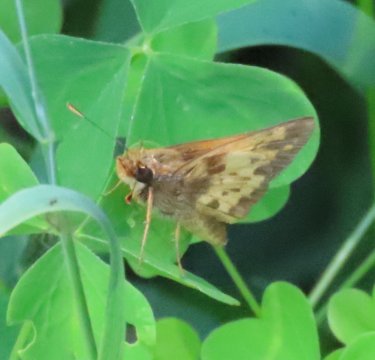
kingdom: Animalia
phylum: Arthropoda
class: Insecta
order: Lepidoptera
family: Hesperiidae
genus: Lon
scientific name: Lon zabulon
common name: Zabulon Skipper
